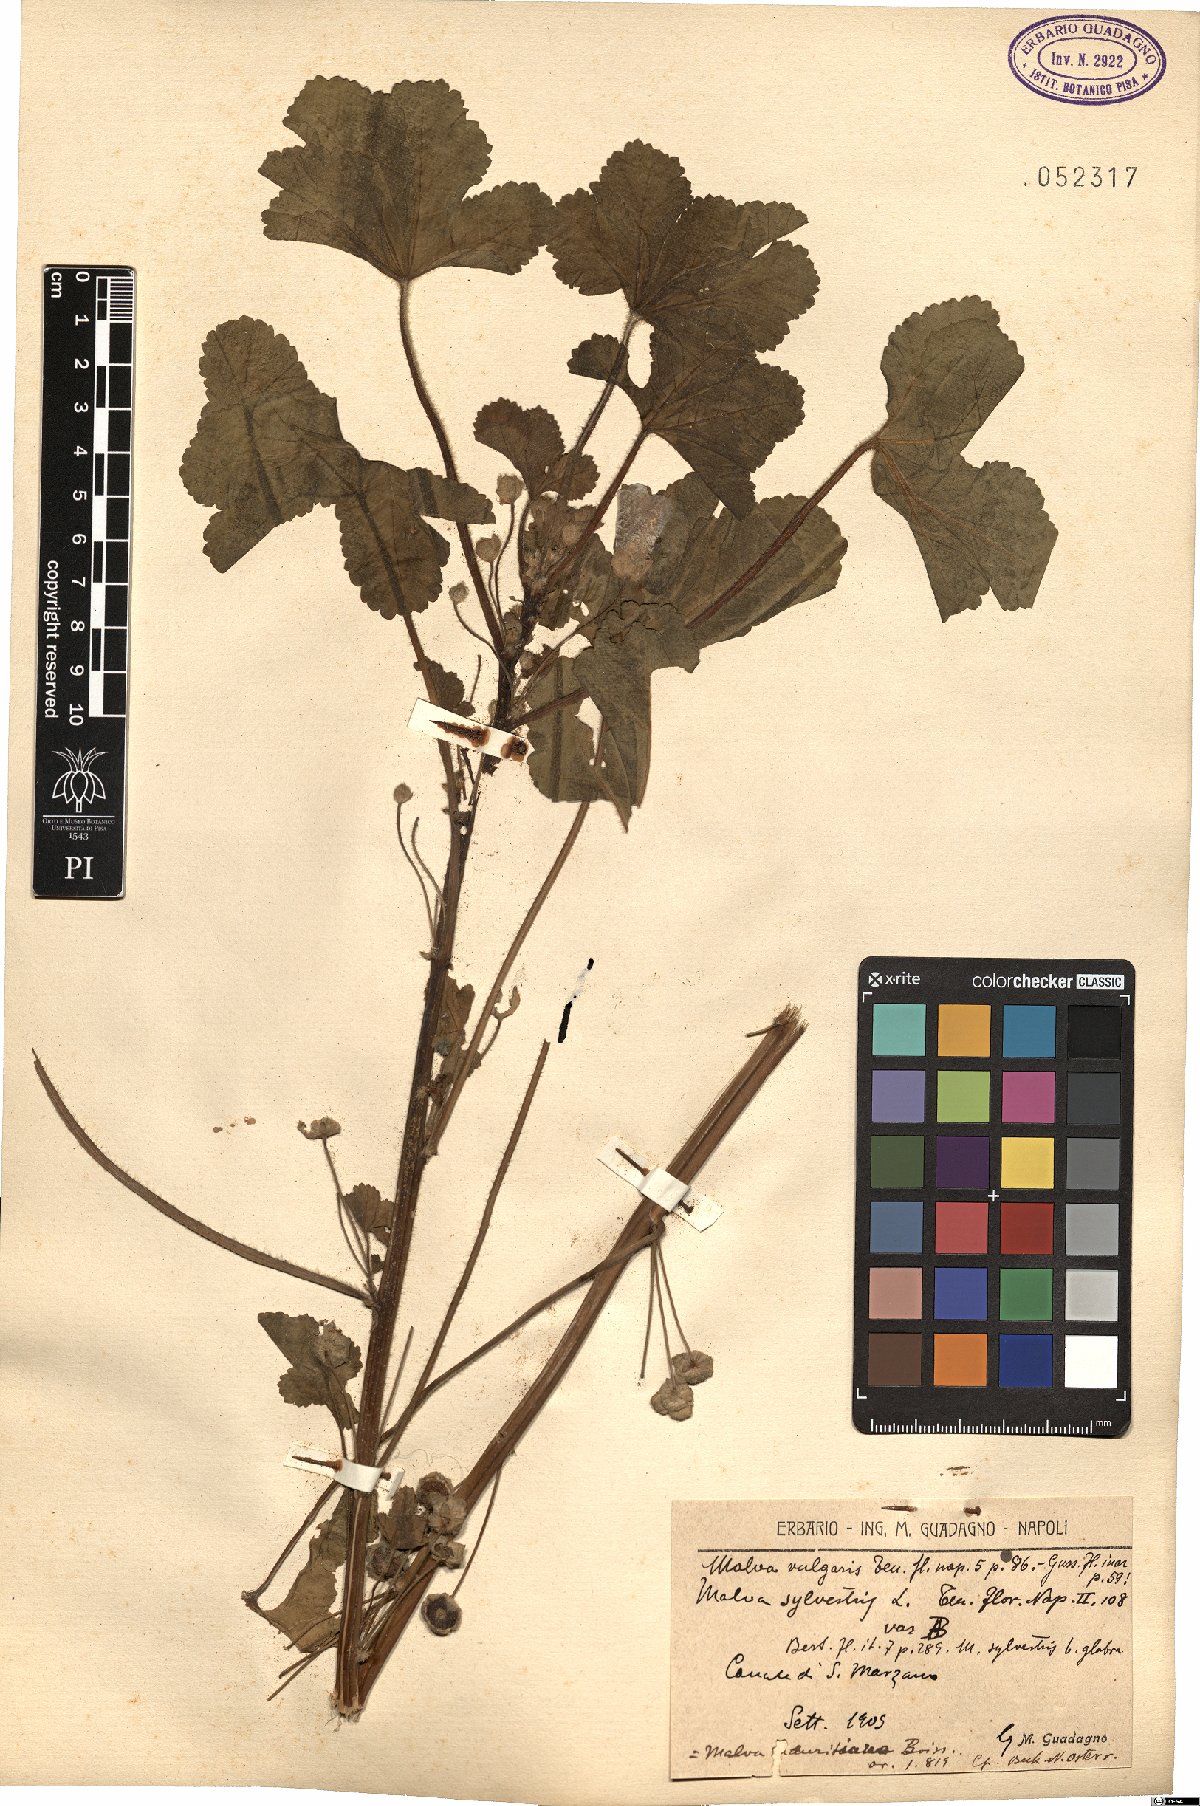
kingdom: Plantae
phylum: Tracheophyta
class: Magnoliopsida
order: Malvales
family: Malvaceae
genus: Malva
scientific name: Malva neglecta
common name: Common mallow
